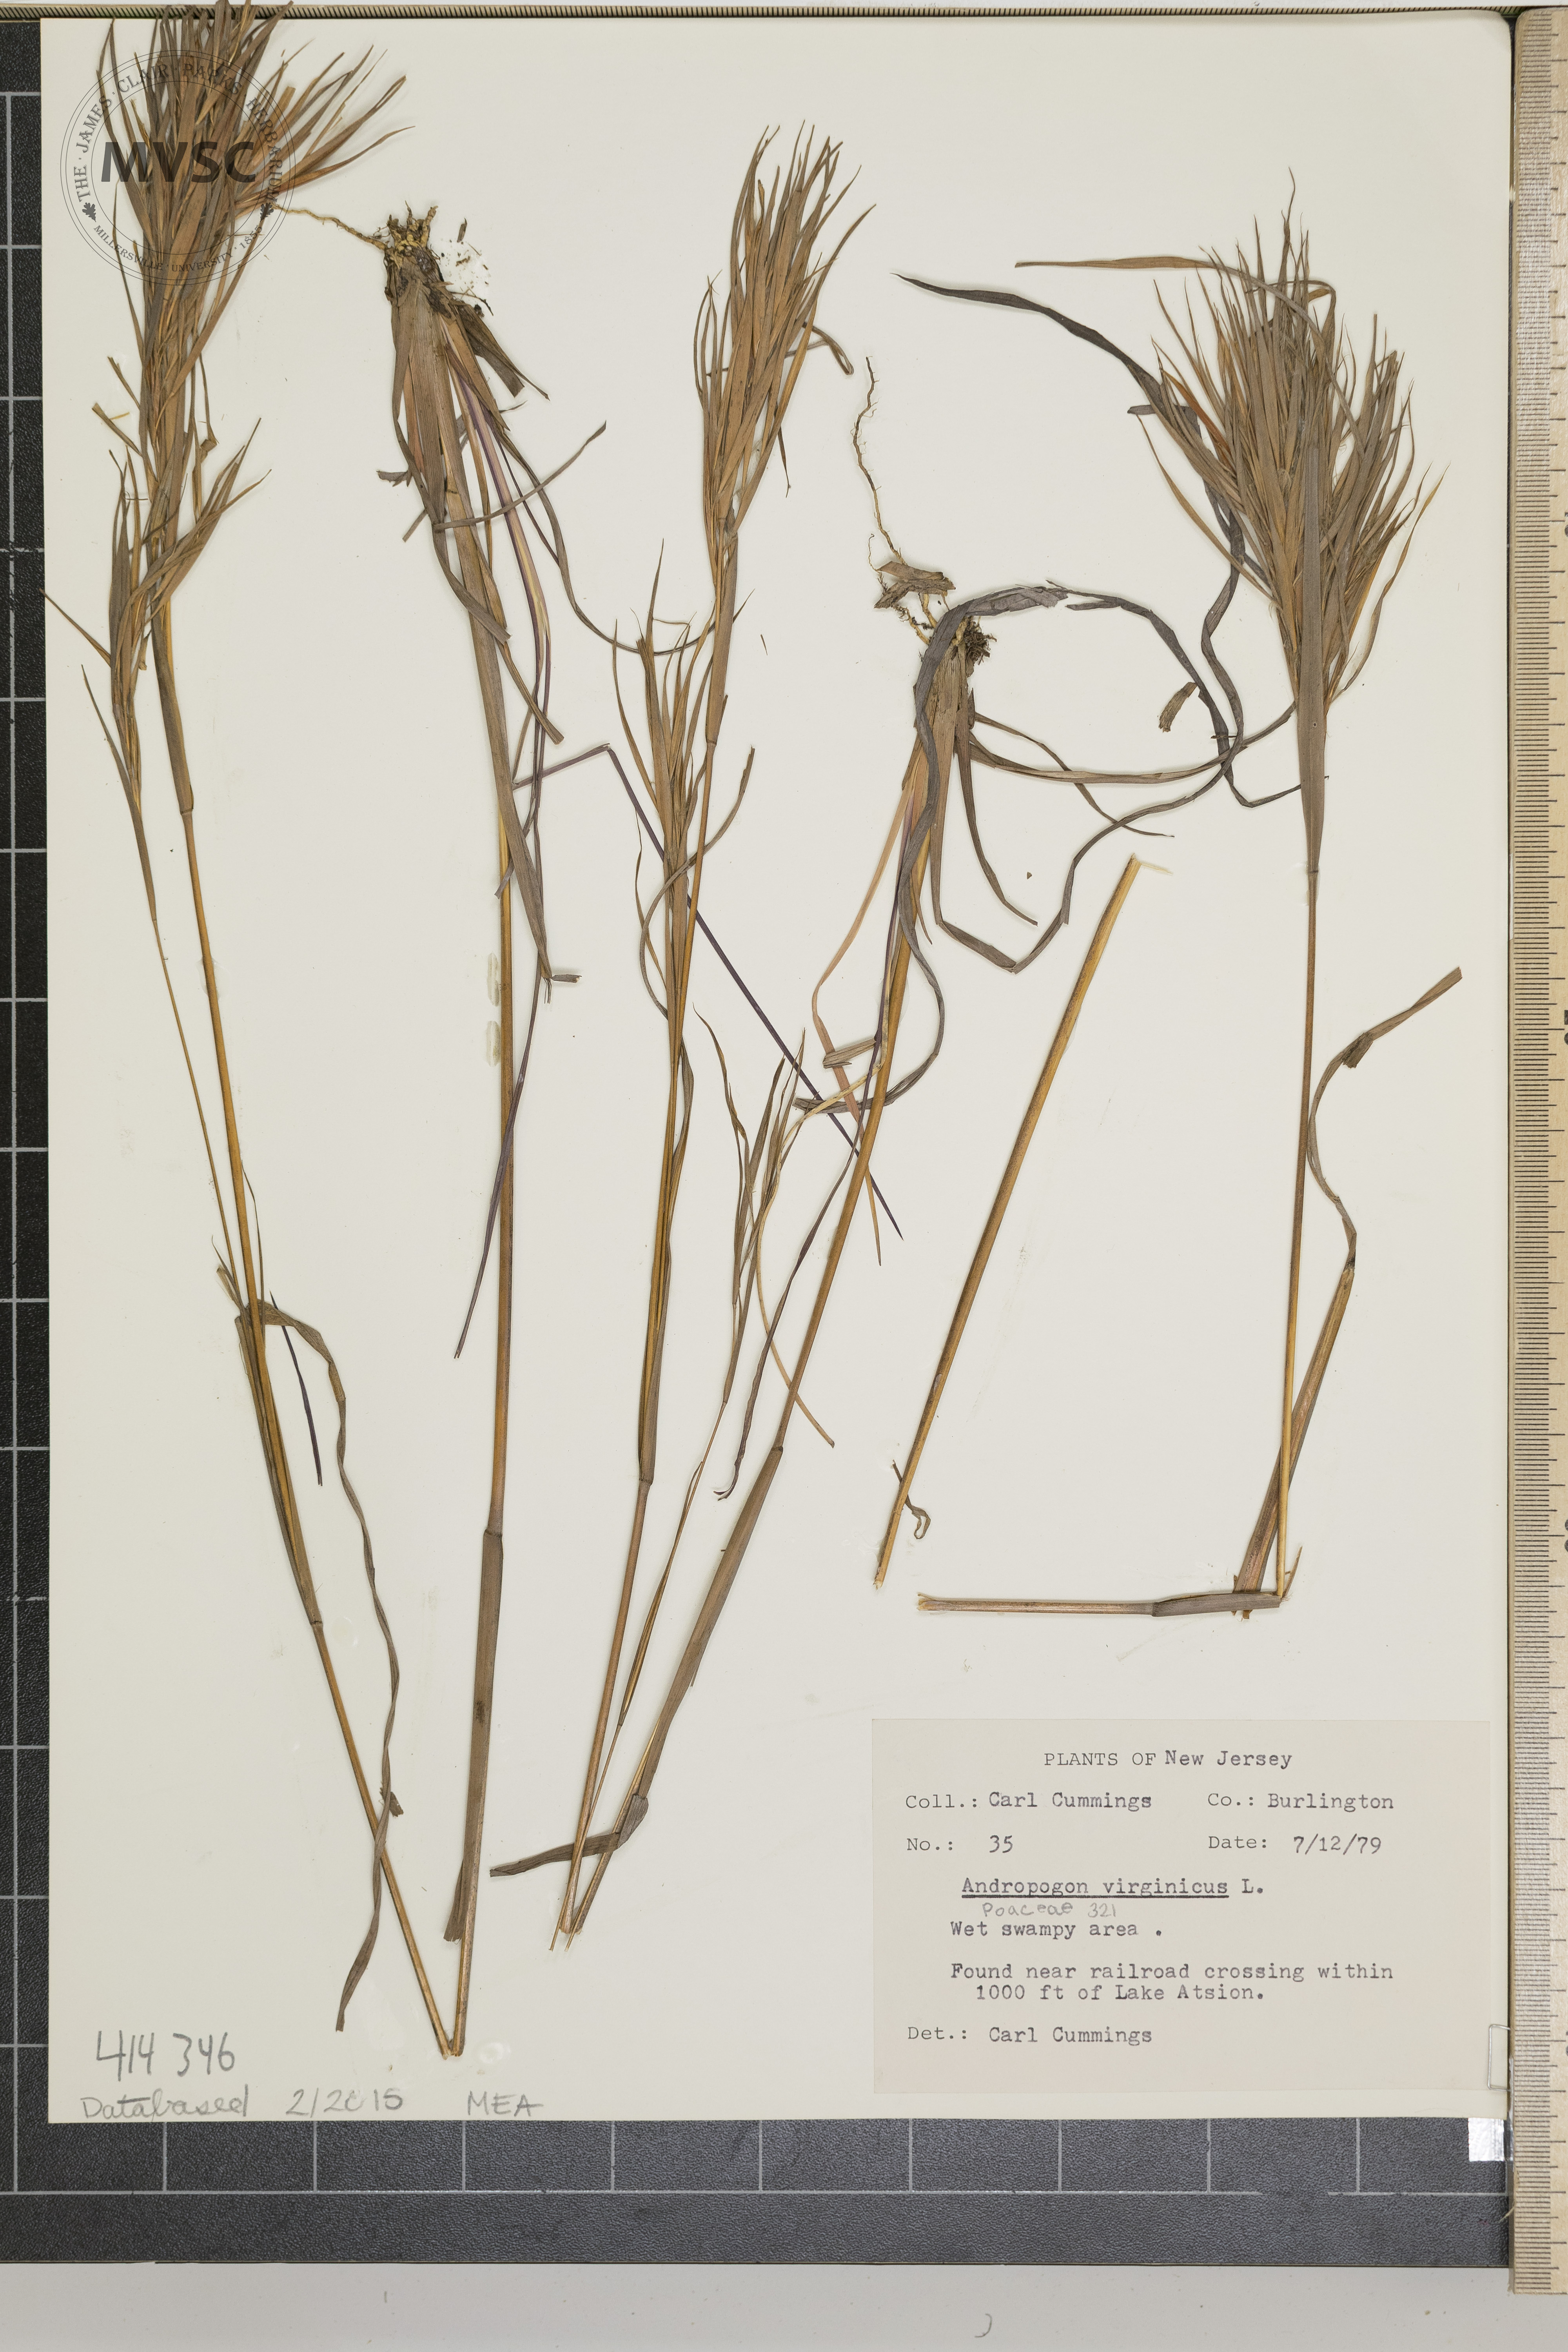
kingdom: Plantae
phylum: Tracheophyta
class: Liliopsida
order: Poales
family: Poaceae
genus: Andropogon
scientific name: Andropogon virginicus
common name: Broomsedge bluestem
